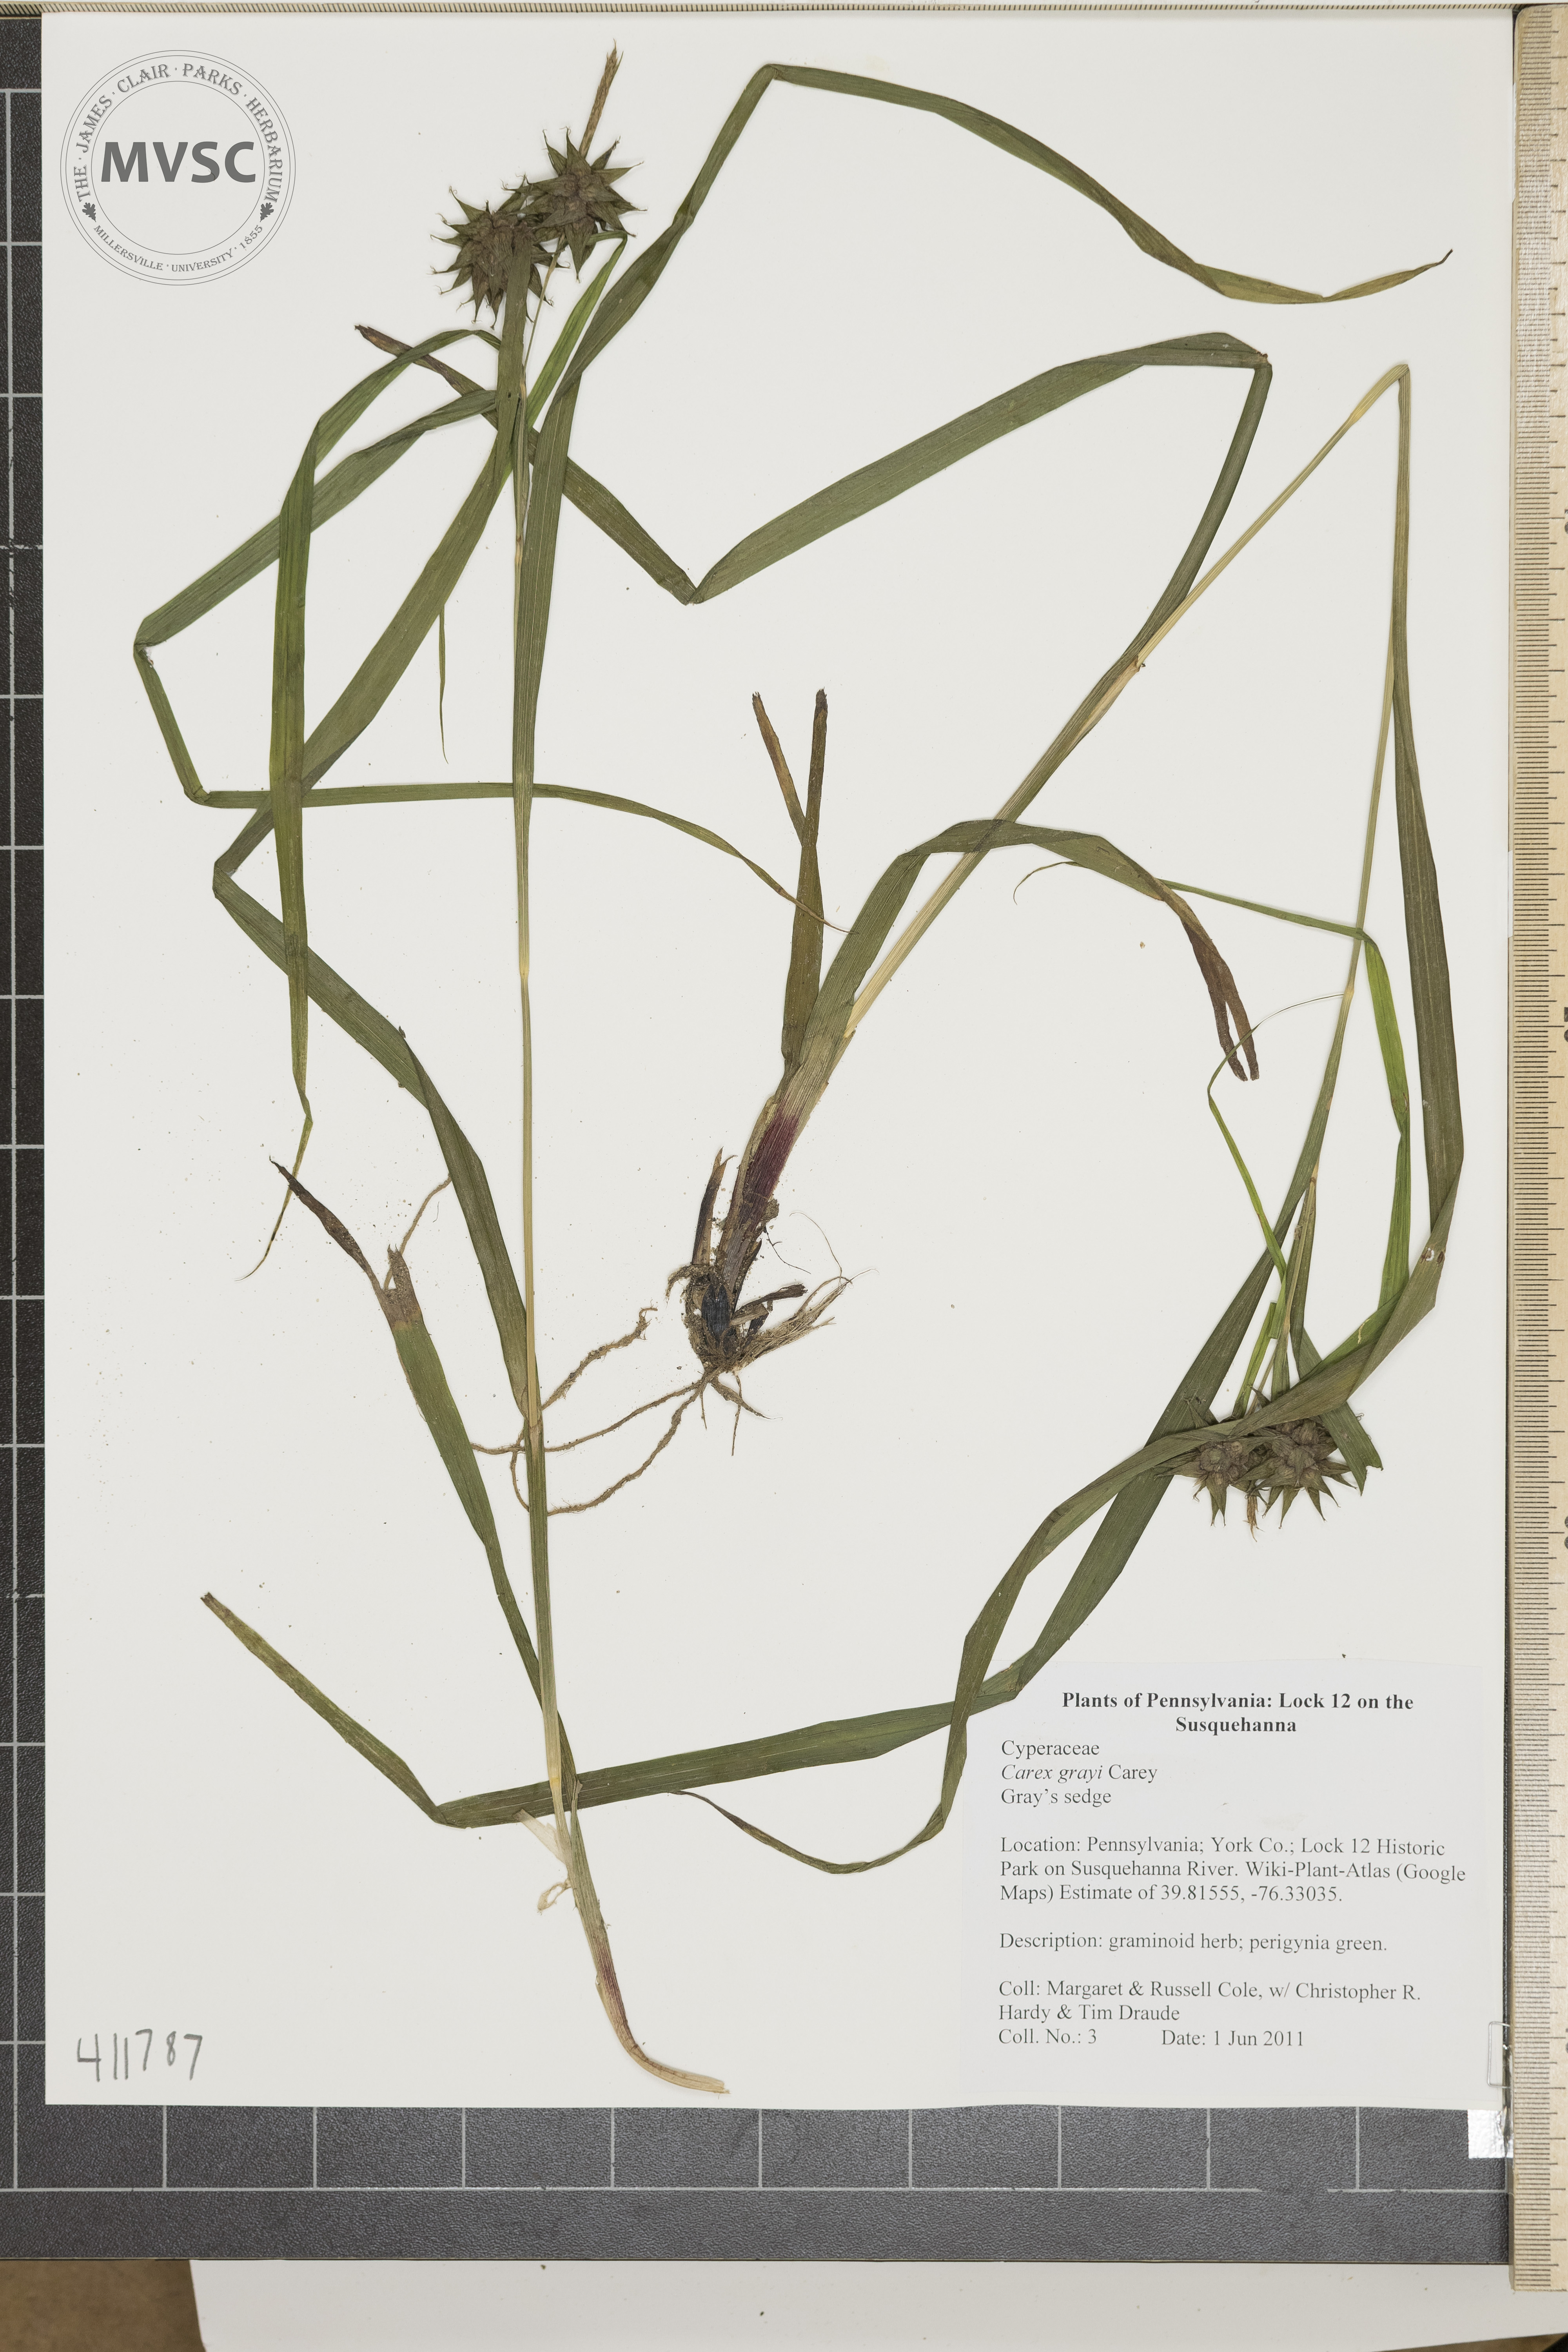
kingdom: Plantae
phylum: Tracheophyta
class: Liliopsida
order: Poales
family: Cyperaceae
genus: Carex
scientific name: Carex grayi
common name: Gray's sedge
